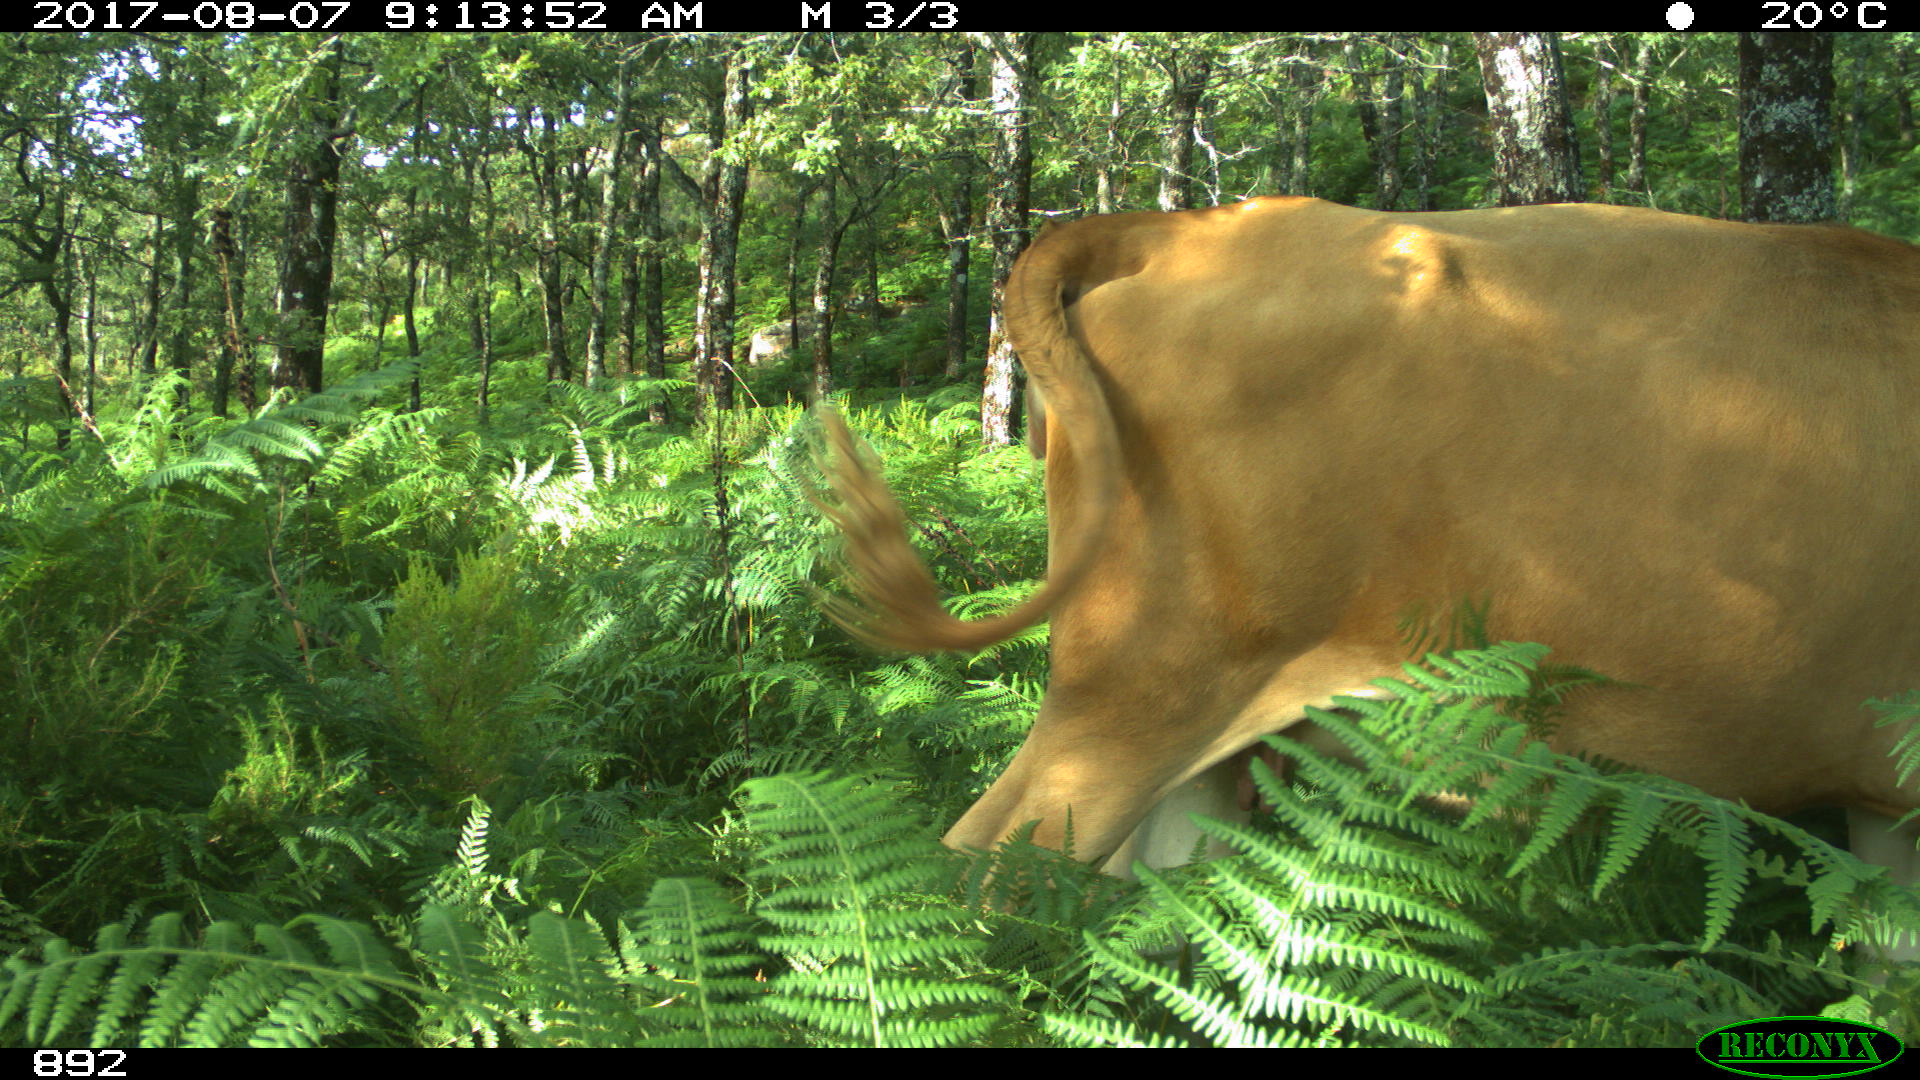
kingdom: Animalia
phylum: Chordata
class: Mammalia
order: Artiodactyla
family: Bovidae
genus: Bos
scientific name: Bos taurus
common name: Domesticated cattle
